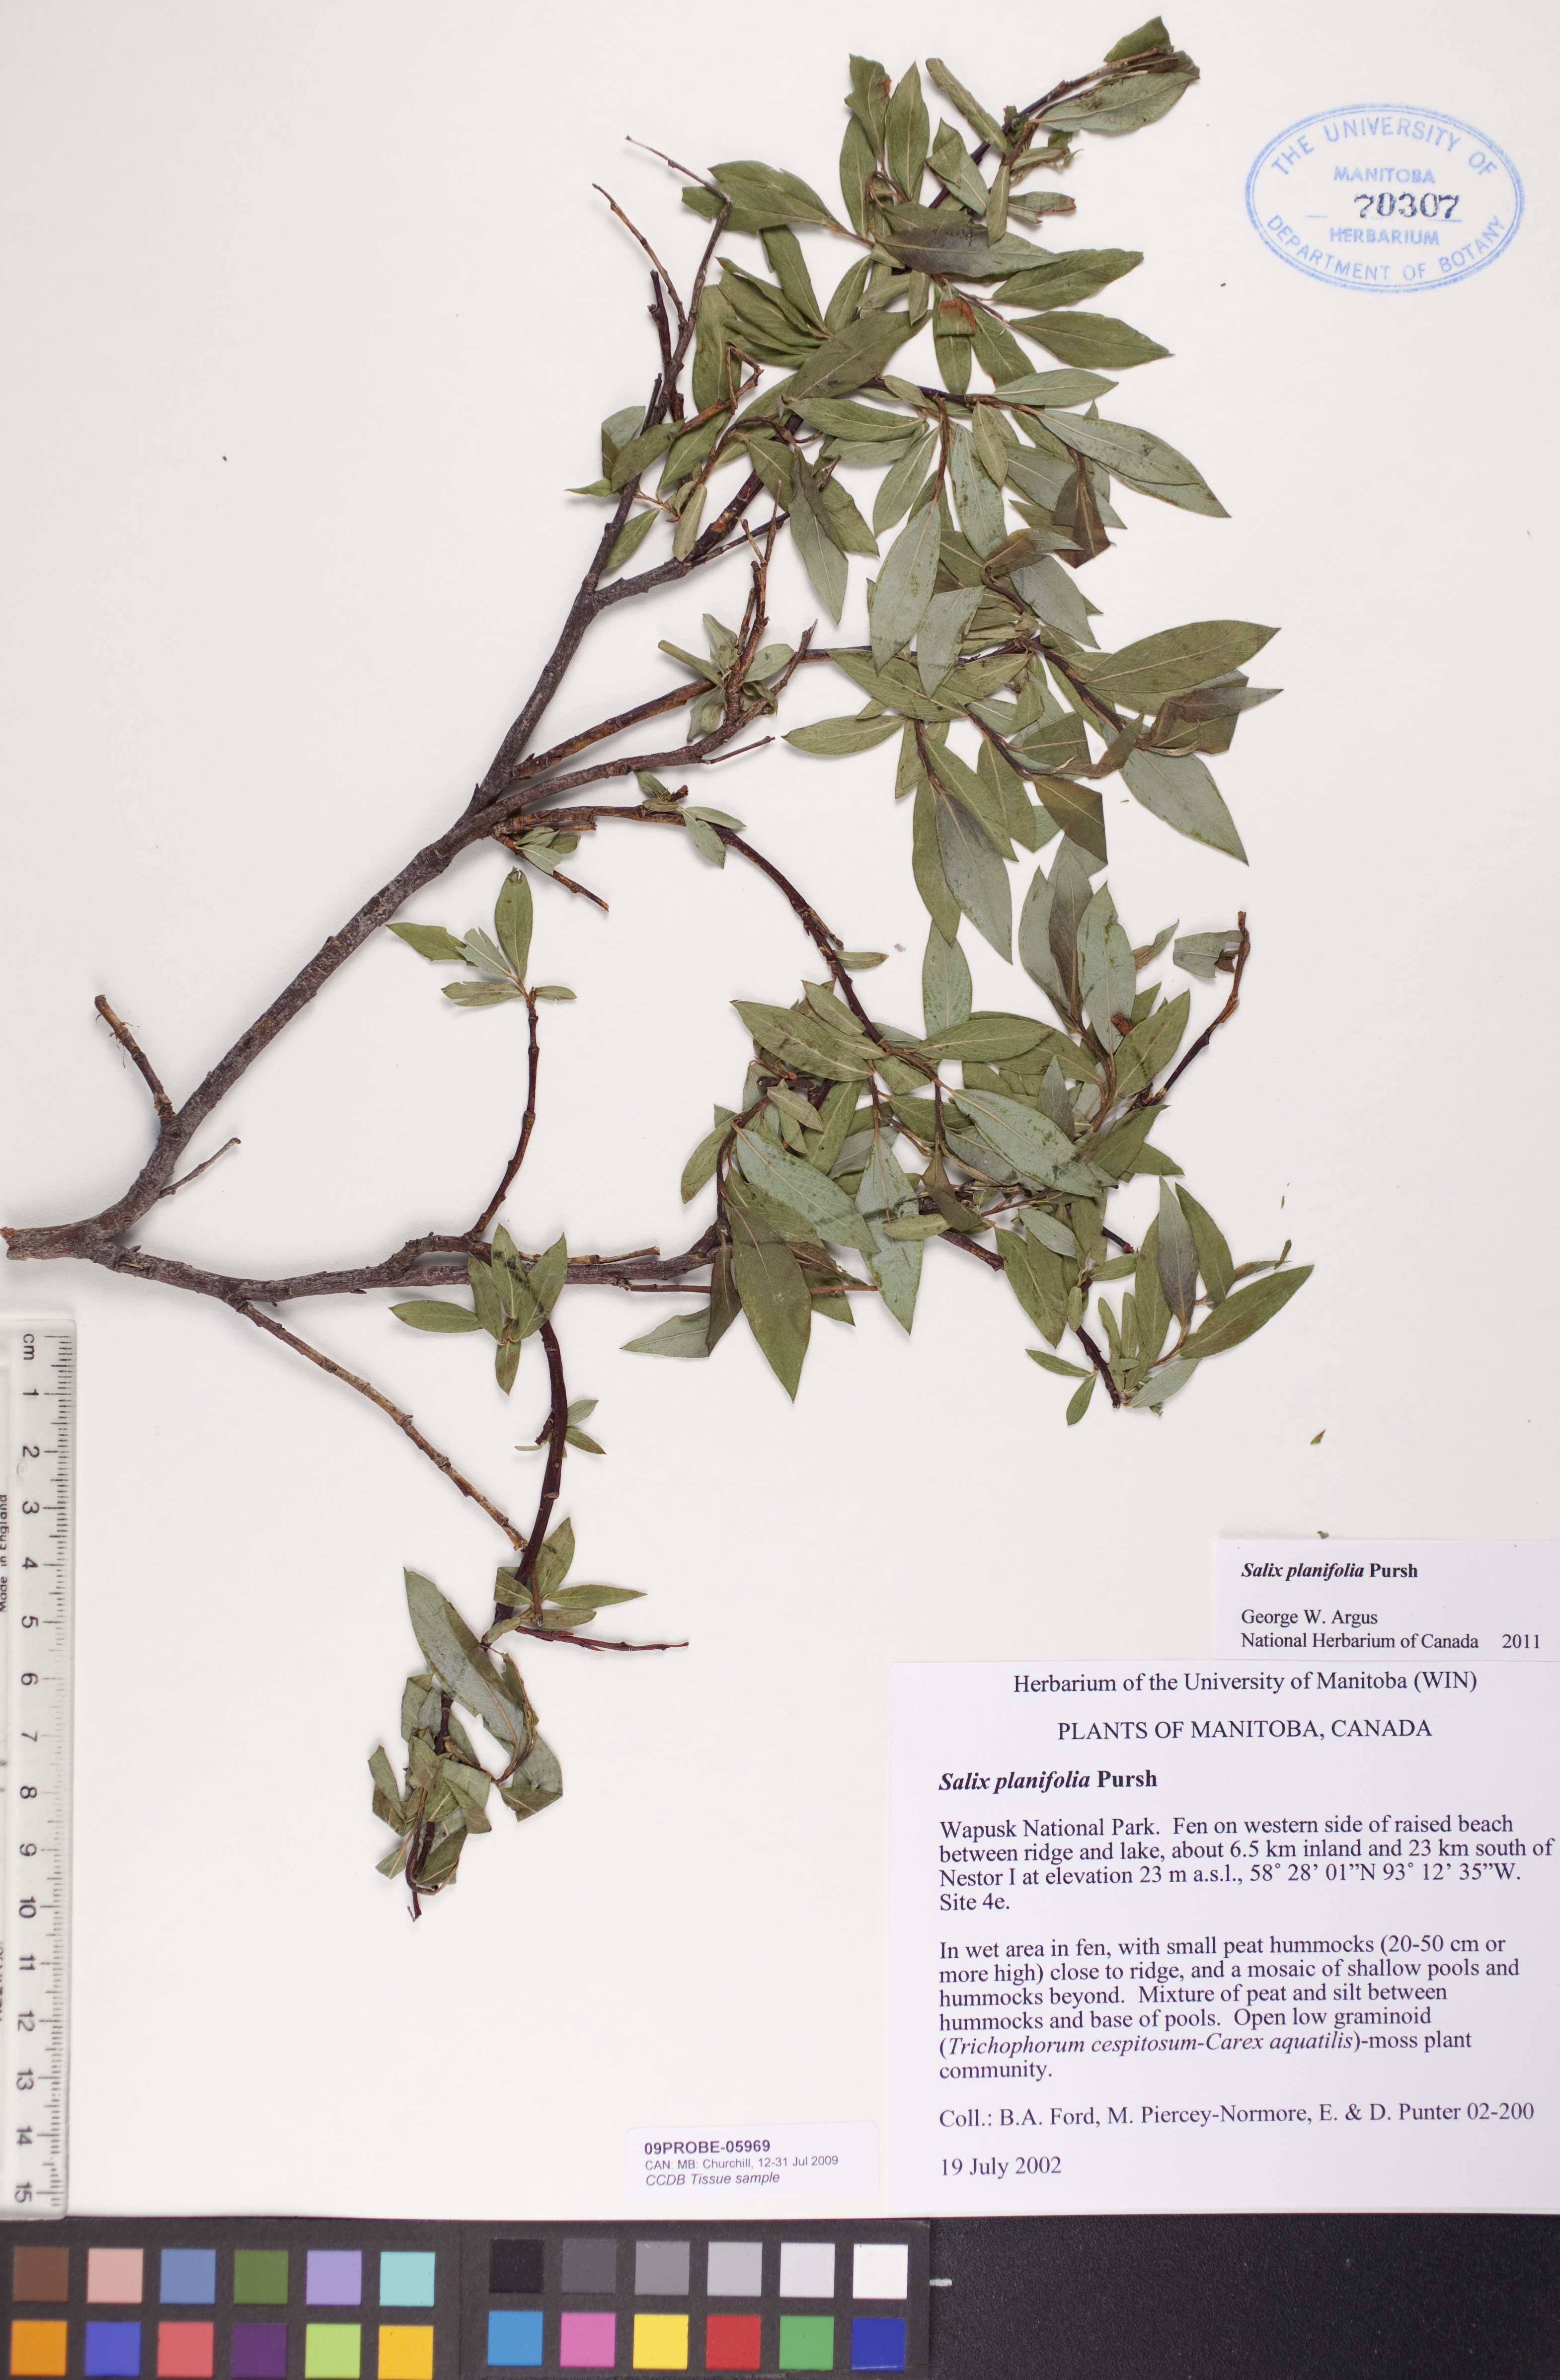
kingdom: Plantae
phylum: Tracheophyta
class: Magnoliopsida
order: Malpighiales
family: Salicaceae
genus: Salix
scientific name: Salix planifolia
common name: Mountain willow
